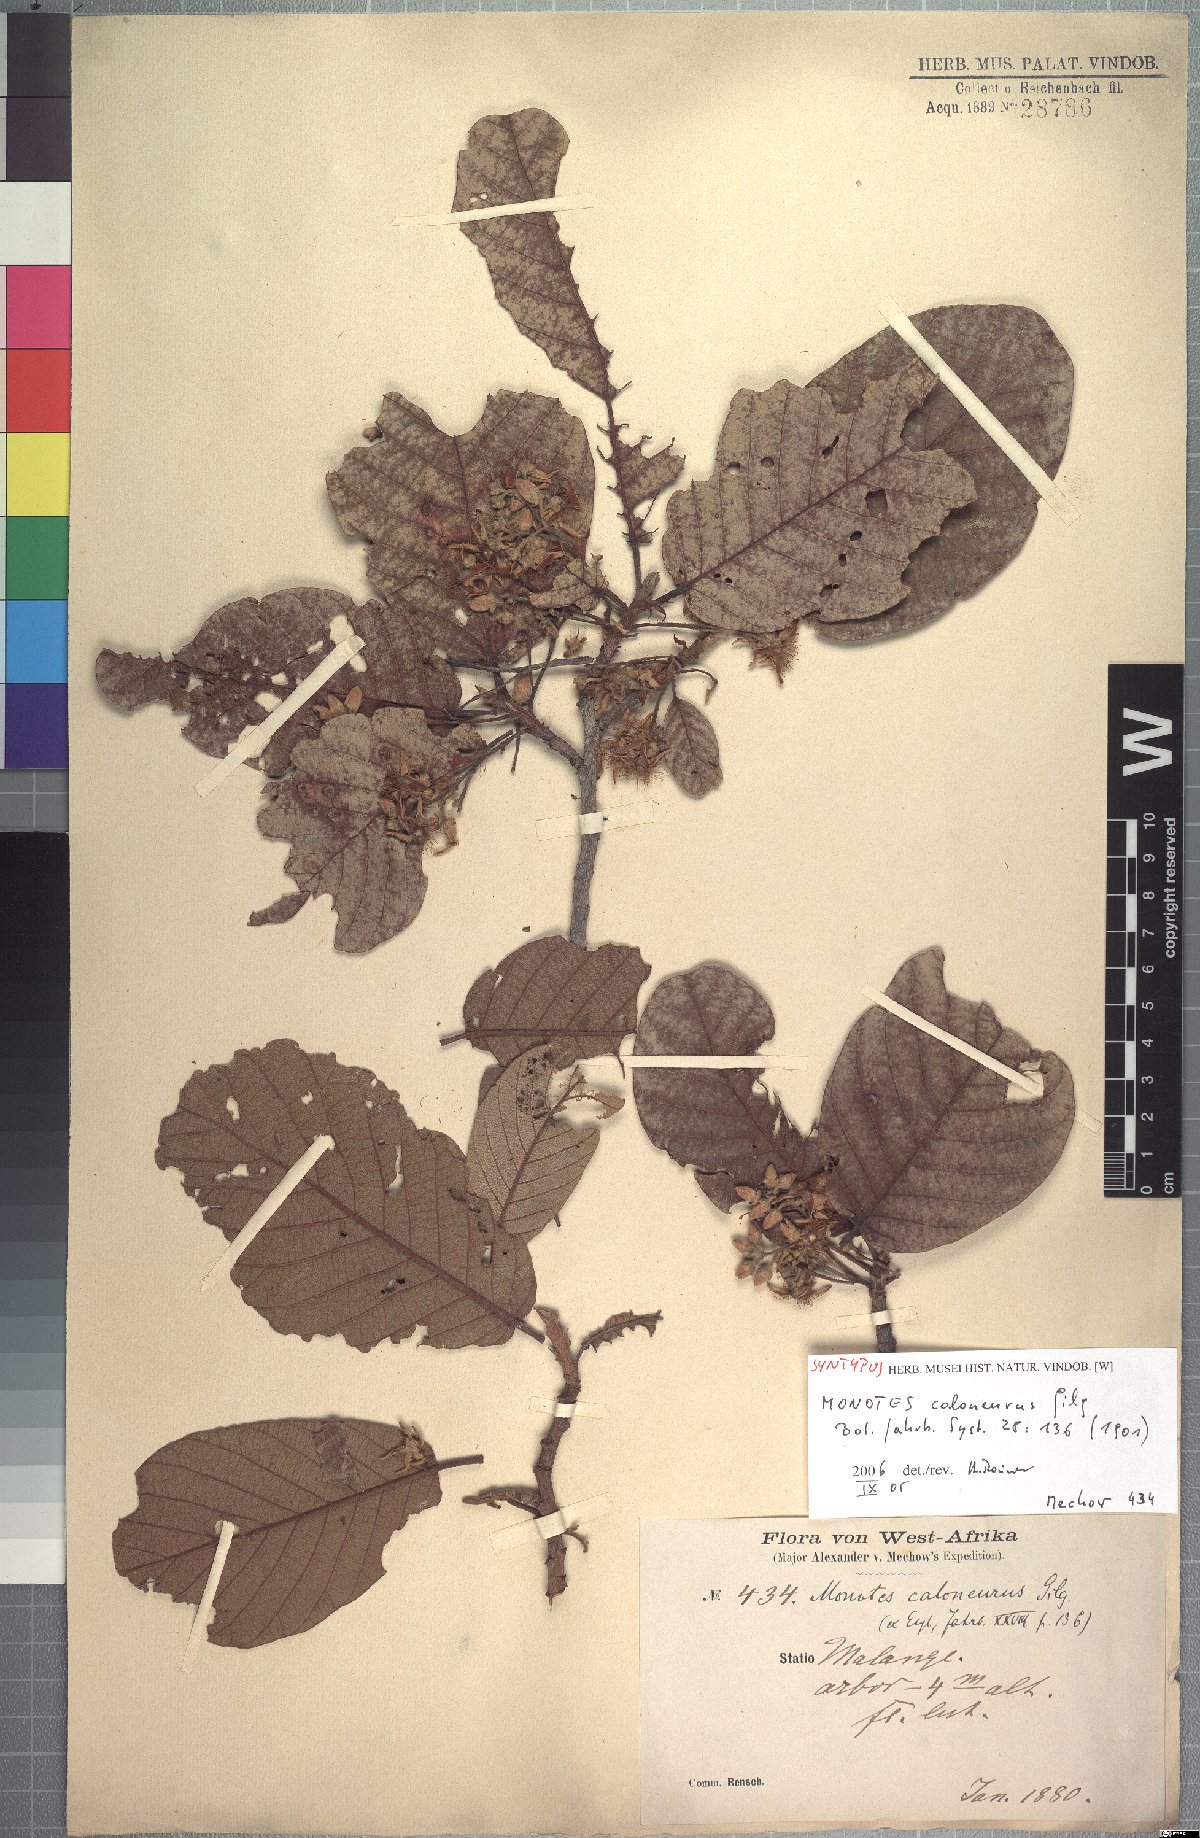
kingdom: Plantae
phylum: Tracheophyta
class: Magnoliopsida
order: Malvales
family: Dipterocarpaceae
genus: Monotes
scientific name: Monotes hypoleucus
